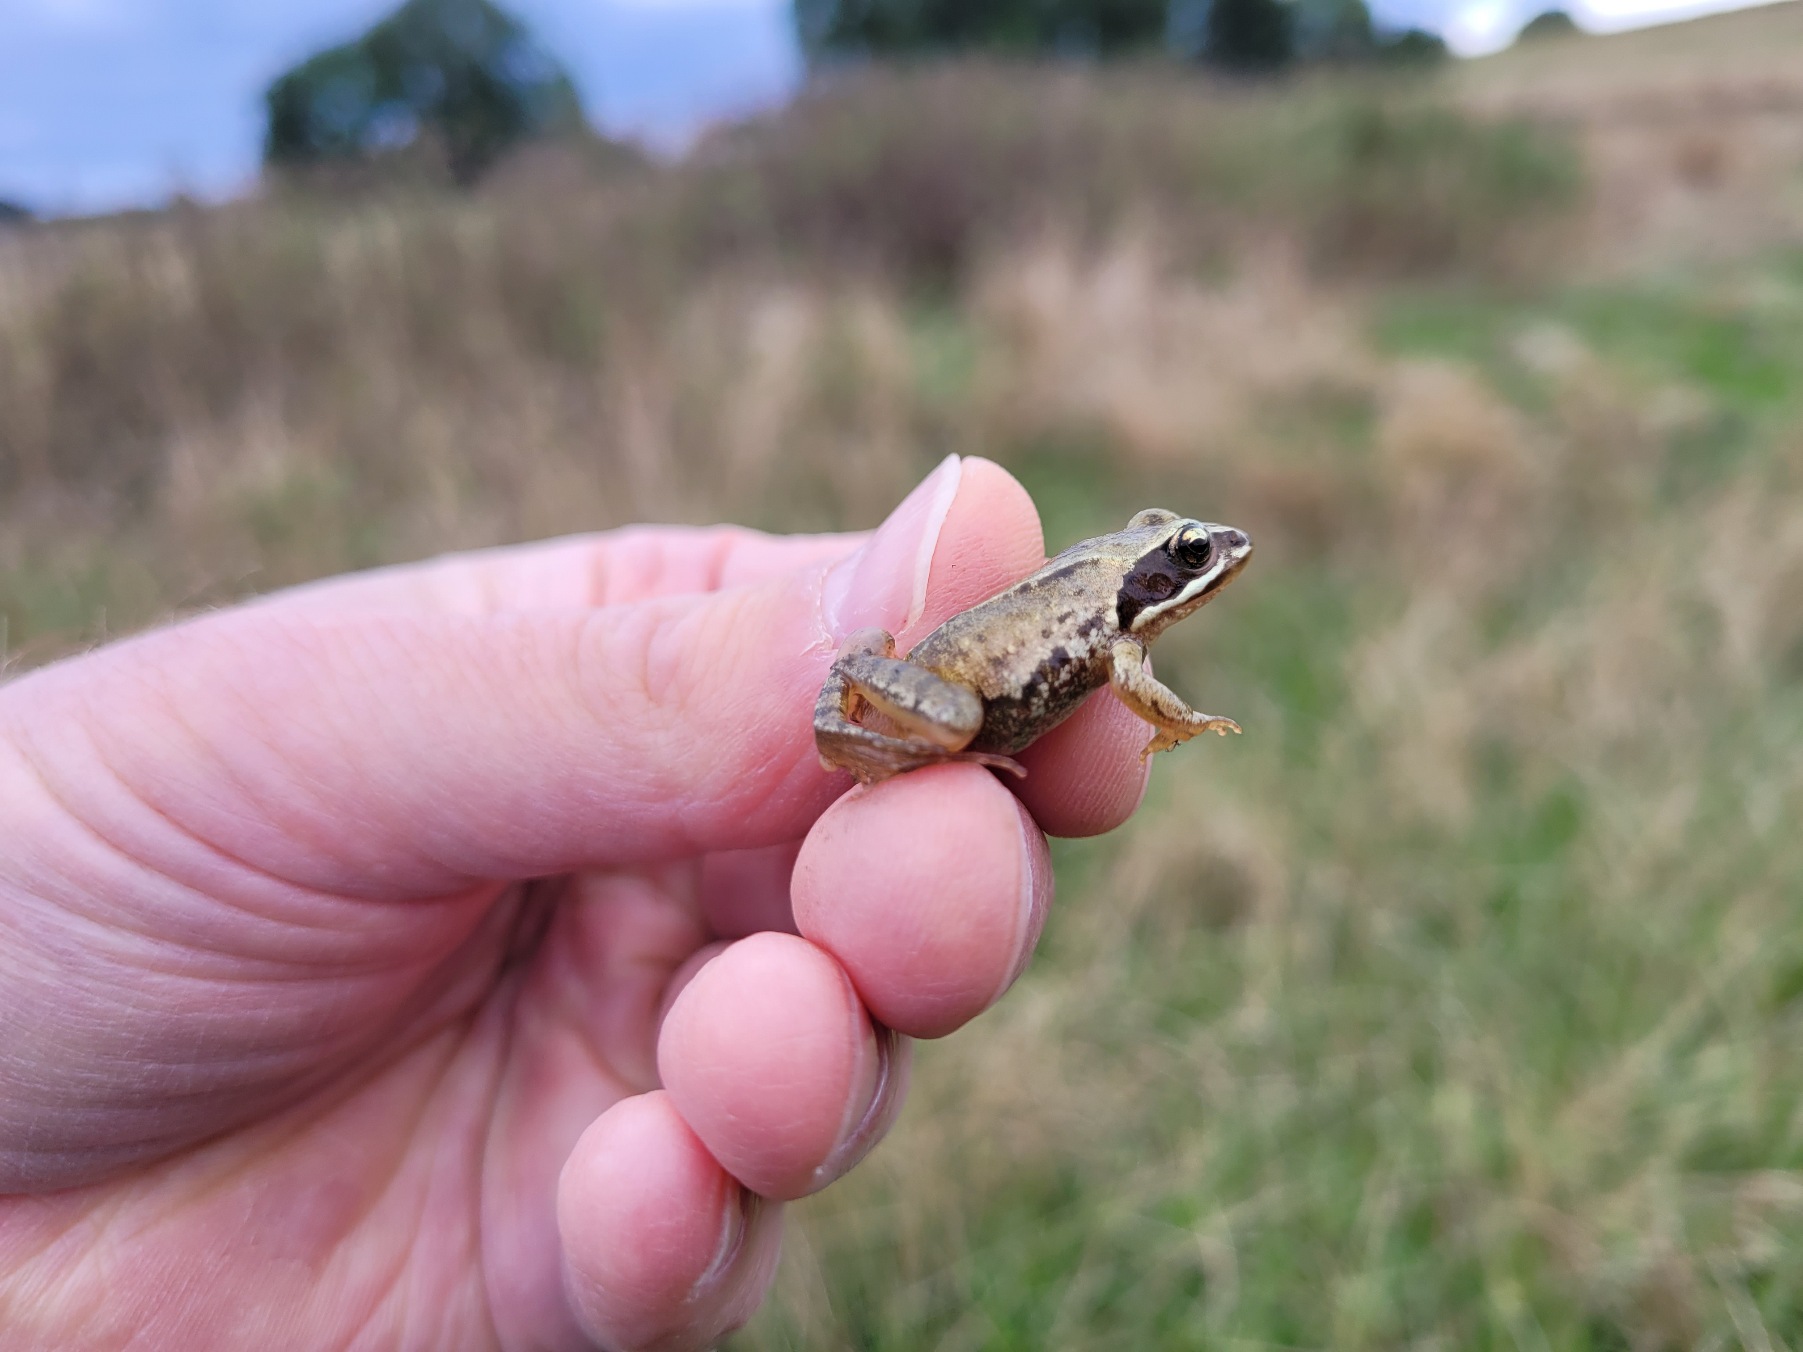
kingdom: Animalia
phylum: Chordata
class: Amphibia
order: Anura
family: Ranidae
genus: Rana
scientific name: Rana arvalis
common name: Spidssnudet frø
